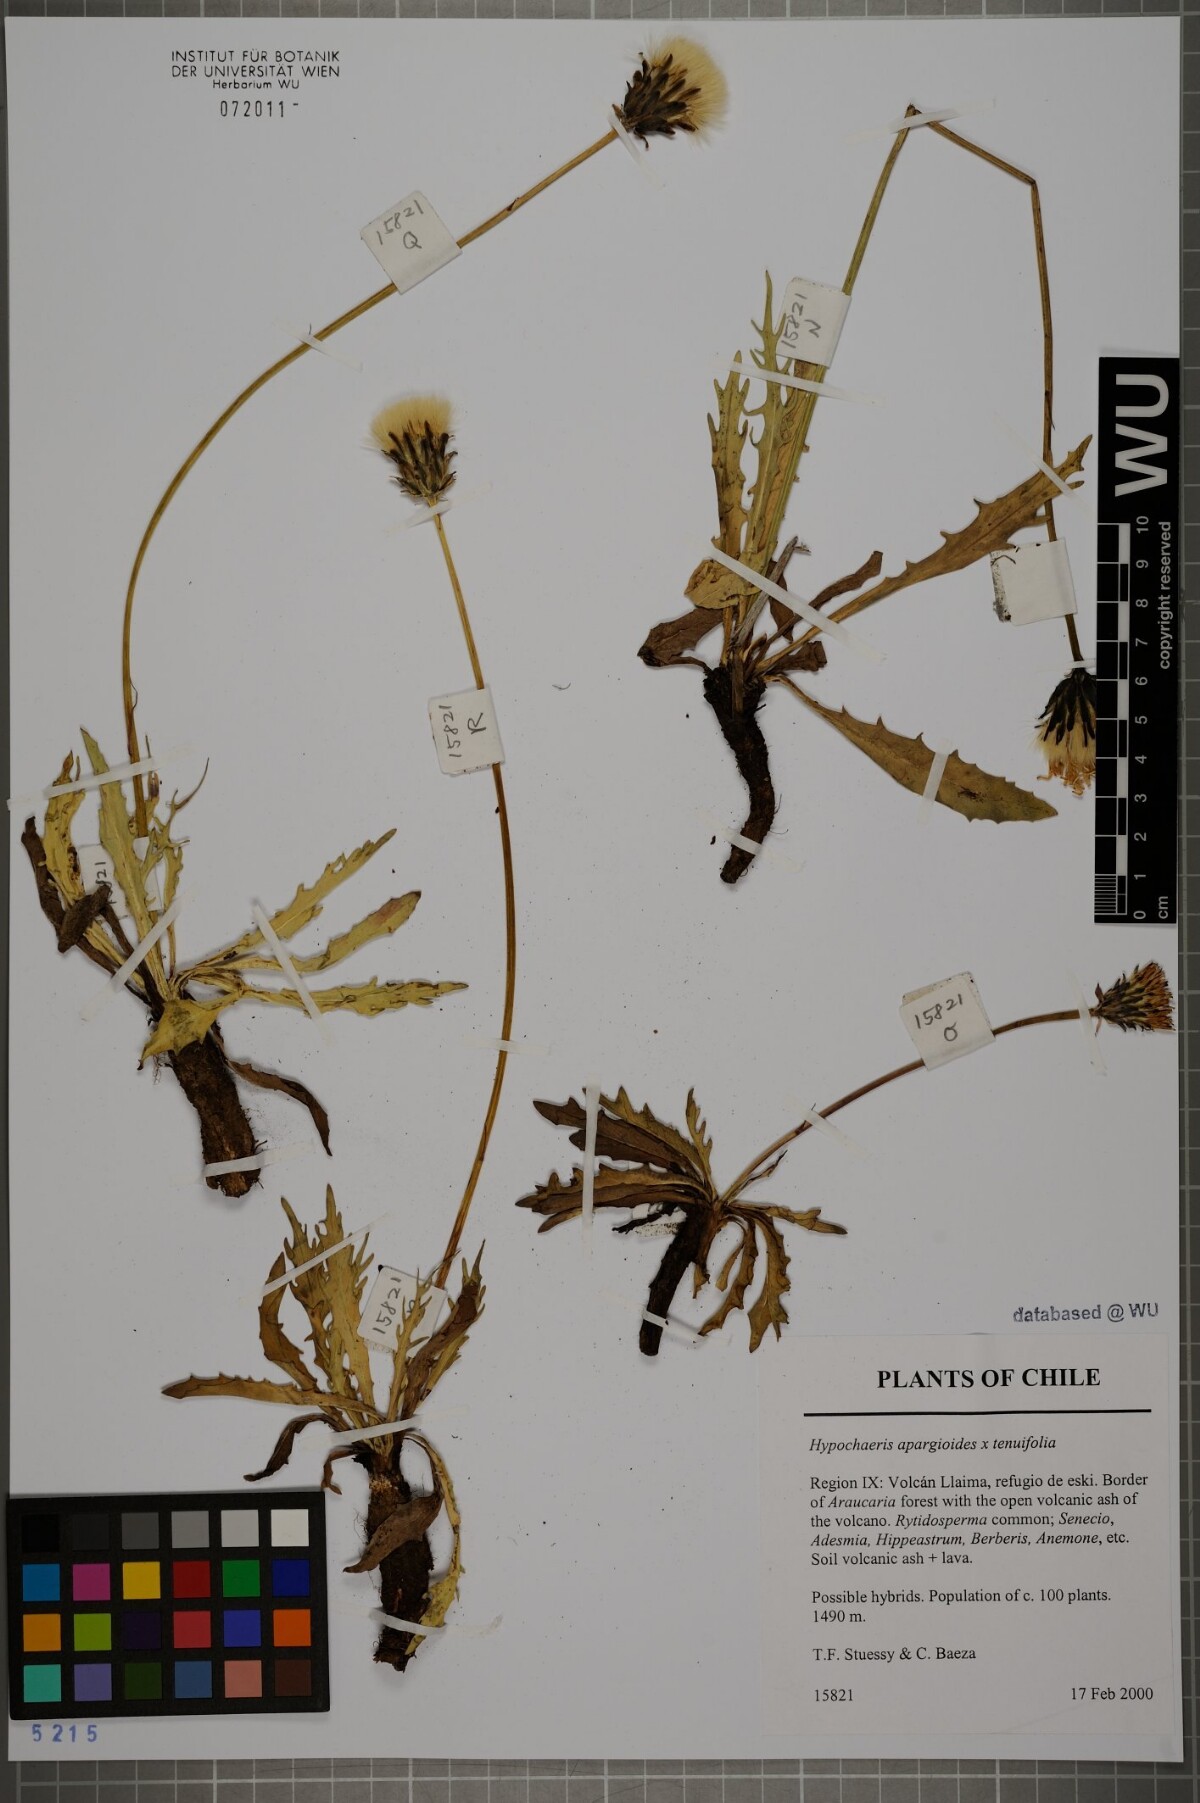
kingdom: Plantae
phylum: Tracheophyta
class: Magnoliopsida
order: Asterales
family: Asteraceae
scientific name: Asteraceae
